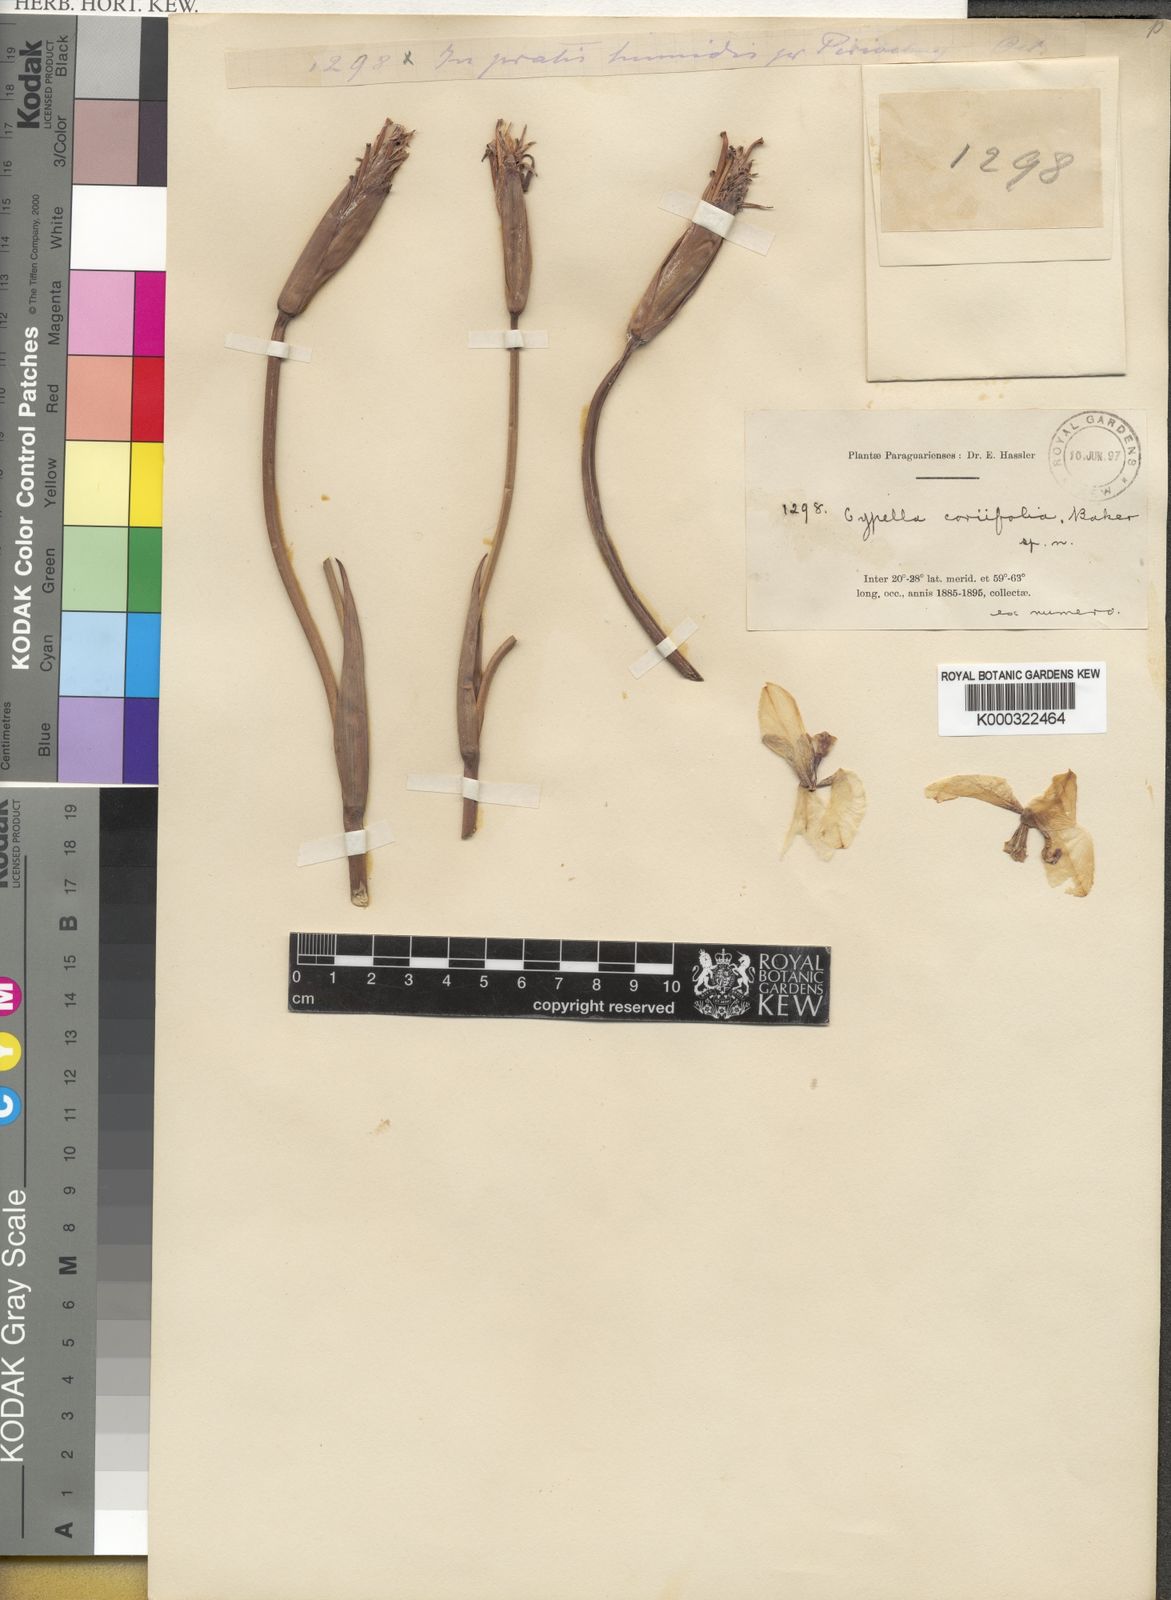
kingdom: Plantae
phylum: Tracheophyta
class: Liliopsida
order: Asparagales
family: Iridaceae
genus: Trimezia
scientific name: Trimezia spathata
